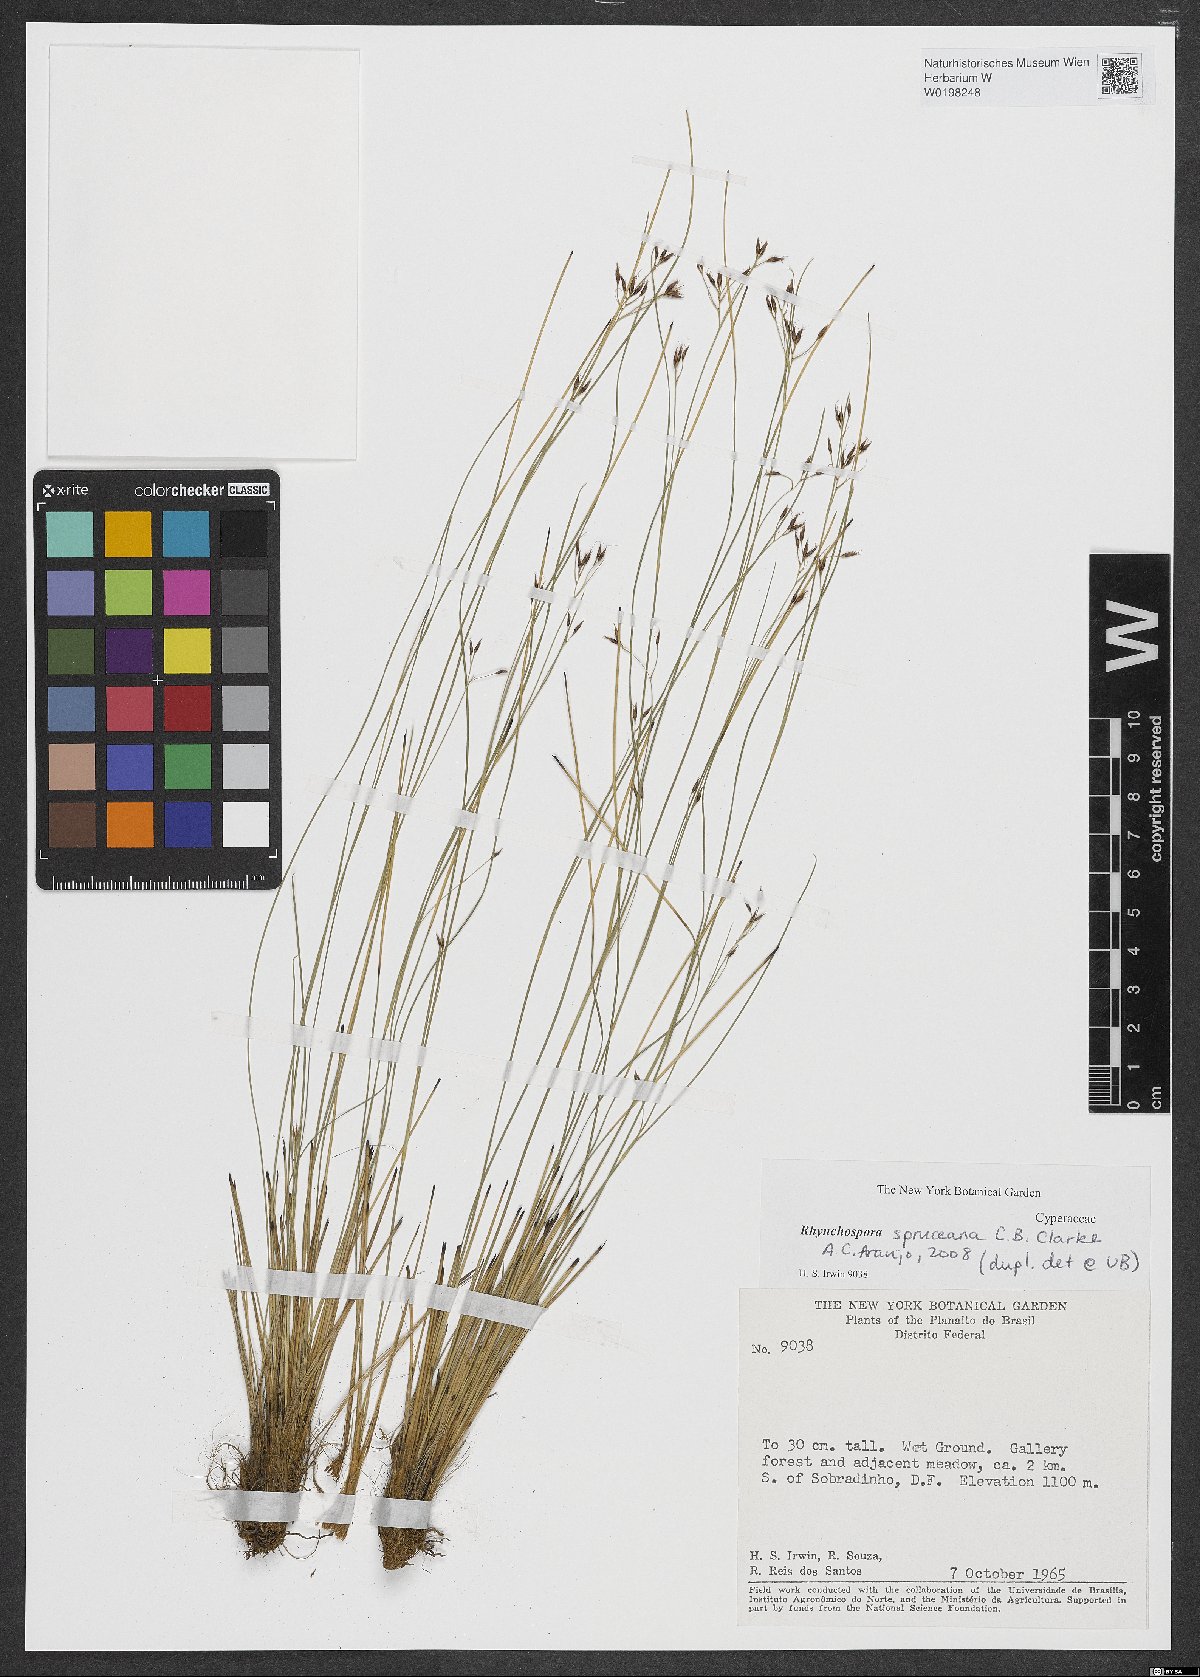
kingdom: Plantae
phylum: Tracheophyta
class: Liliopsida
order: Poales
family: Cyperaceae
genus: Rhynchospora
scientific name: Rhynchospora spruceana
